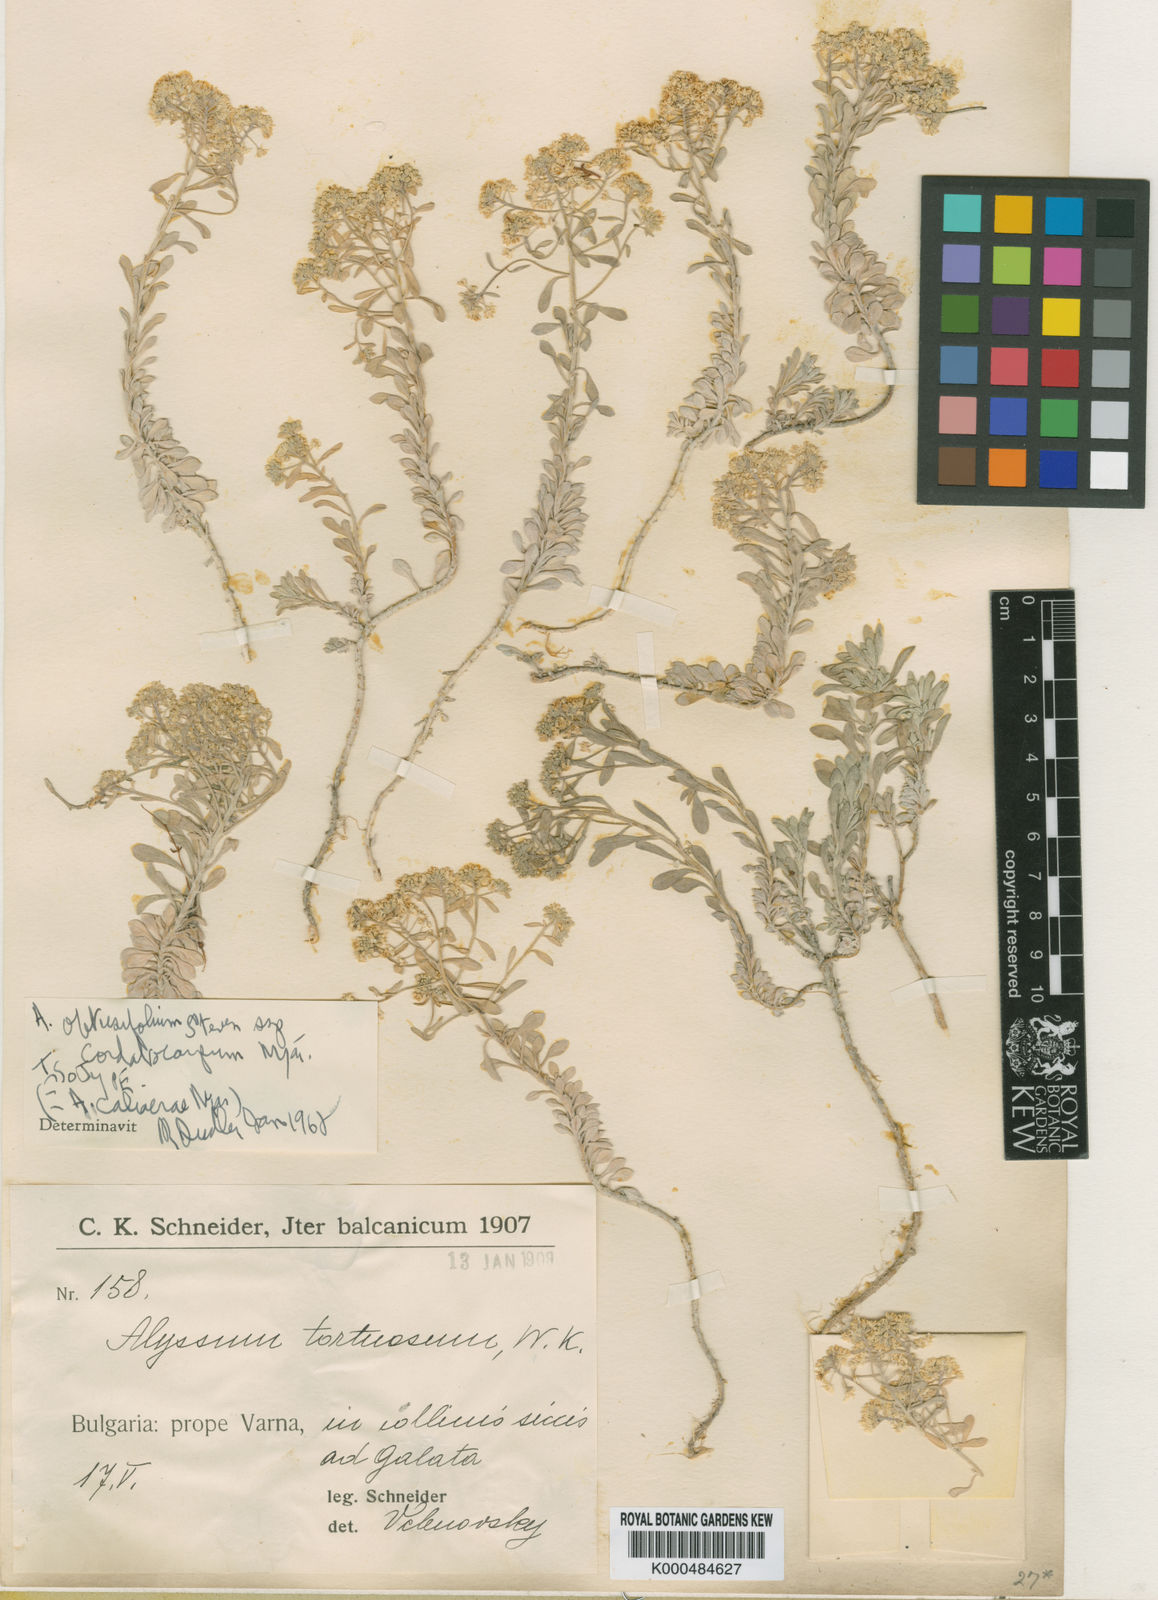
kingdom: Plantae
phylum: Tracheophyta
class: Magnoliopsida
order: Brassicales
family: Brassicaceae
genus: Odontarrhena
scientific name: Odontarrhena obtusifolia
